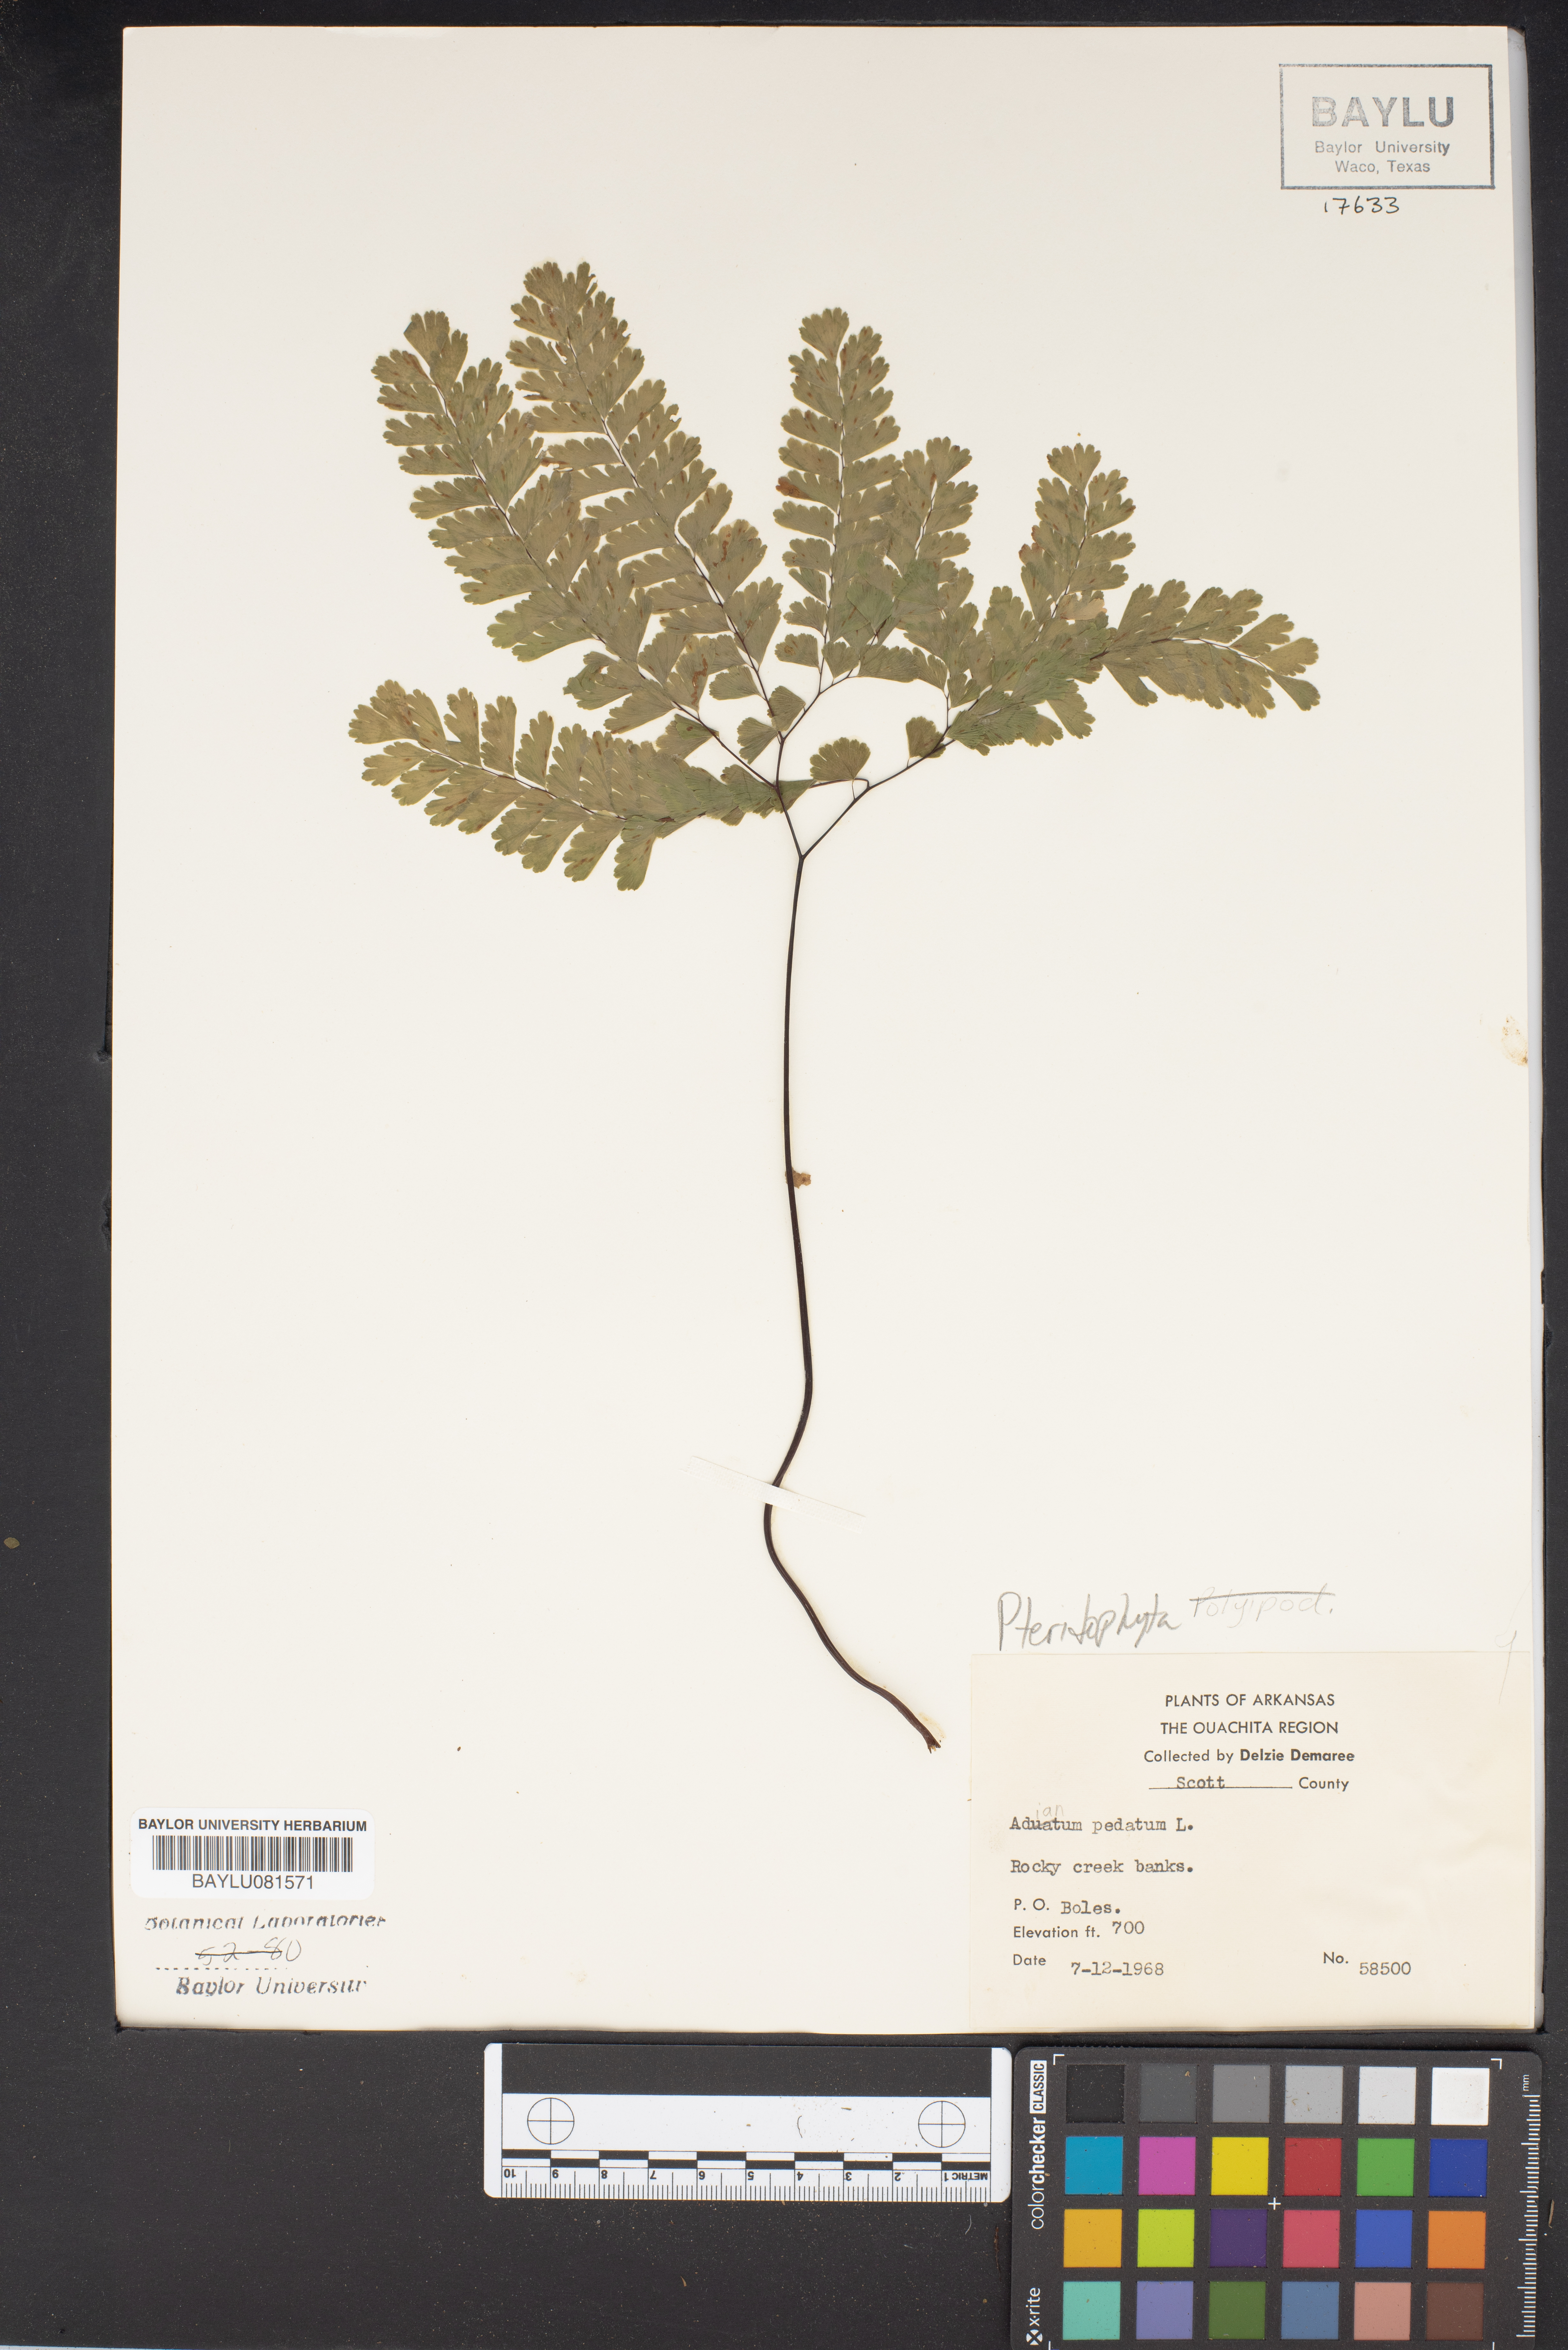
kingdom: Plantae
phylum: Tracheophyta
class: Polypodiopsida
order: Polypodiales
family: Pteridaceae
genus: Adiantum
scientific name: Adiantum pedatum
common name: Five-finger fern
